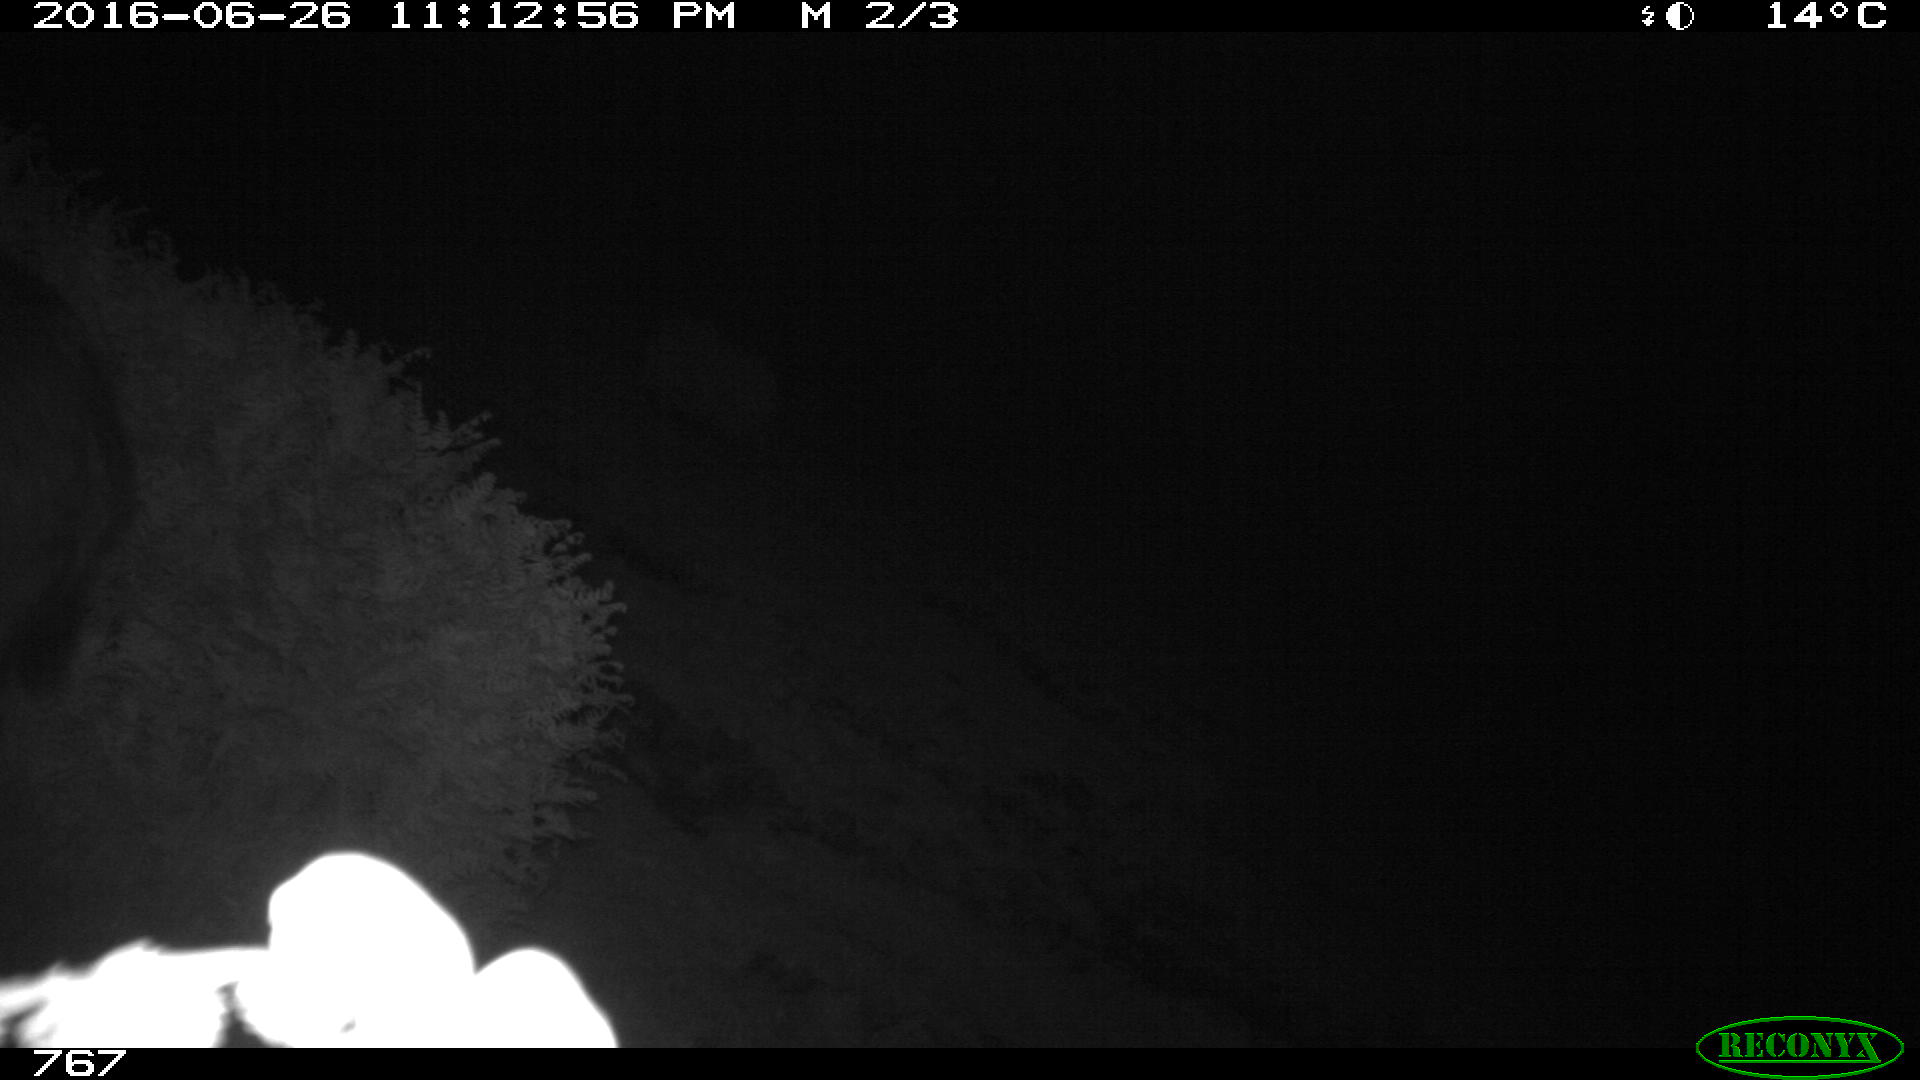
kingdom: Animalia
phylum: Chordata
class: Mammalia
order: Artiodactyla
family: Suidae
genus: Sus
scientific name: Sus scrofa
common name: Wild boar
